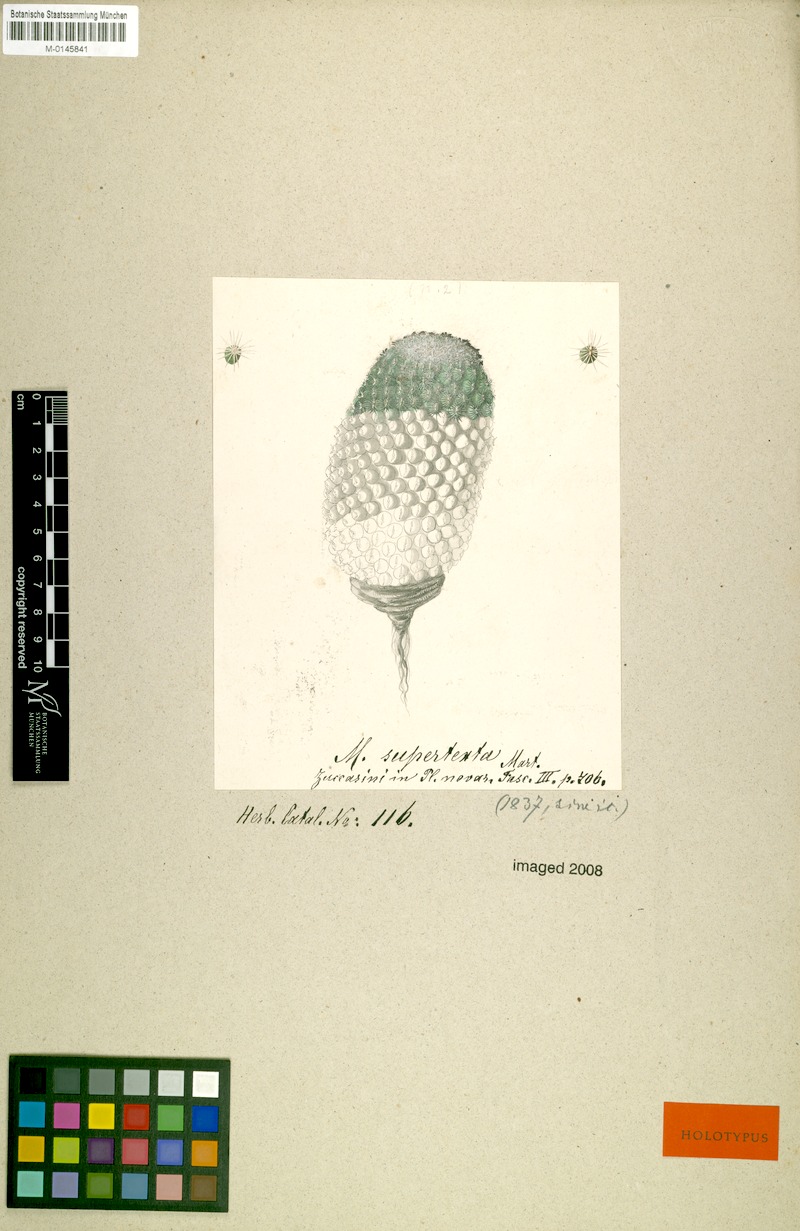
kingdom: Plantae
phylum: Tracheophyta
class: Magnoliopsida
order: Caryophyllales
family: Cactaceae
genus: Mammillaria
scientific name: Mammillaria supertexta
